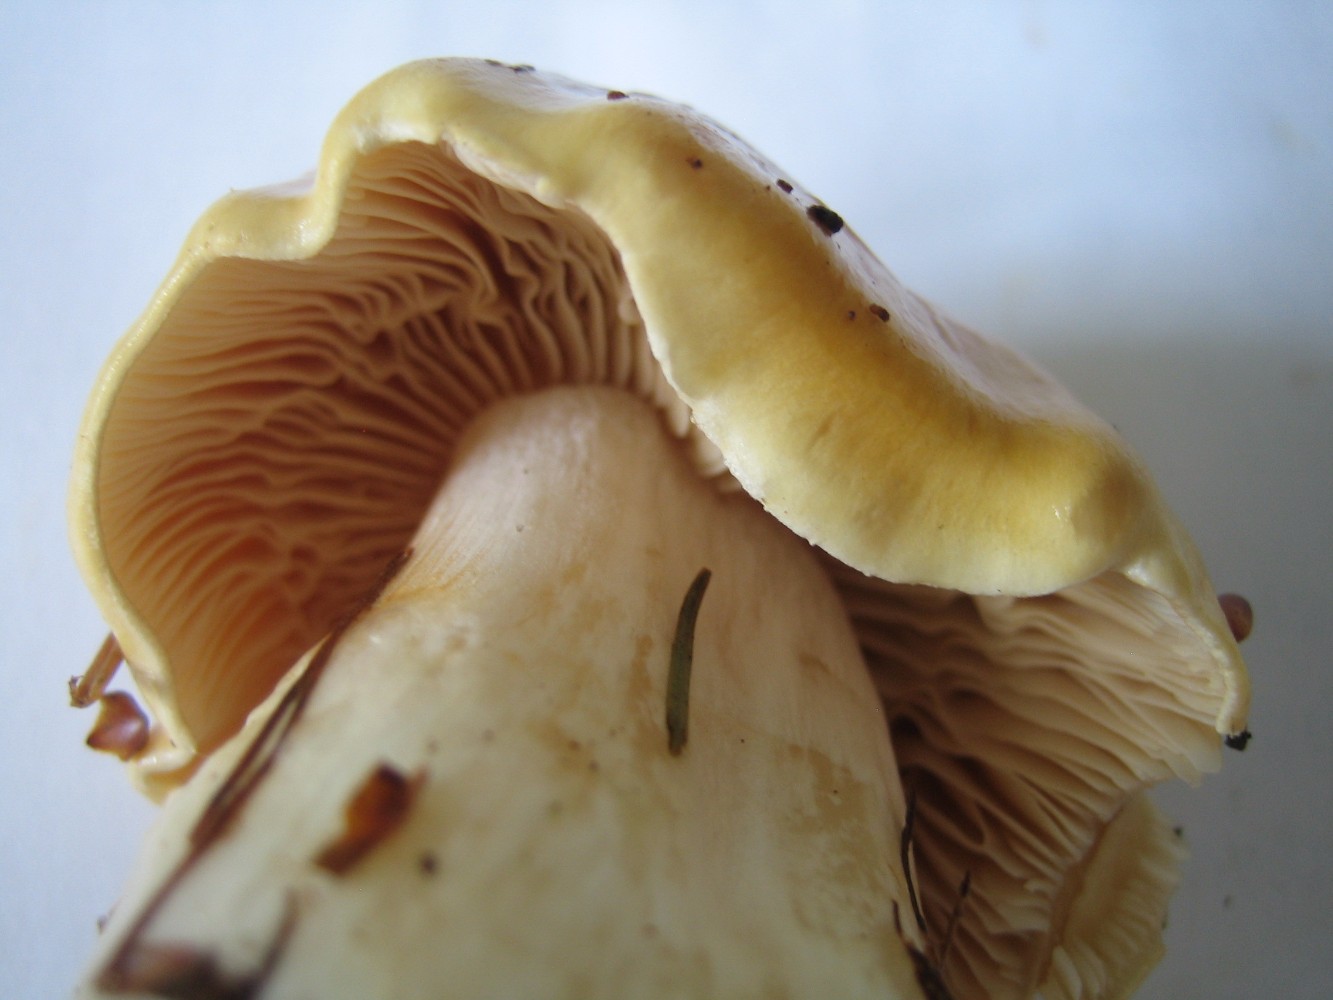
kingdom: Fungi
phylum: Basidiomycota
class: Agaricomycetes
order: Agaricales
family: Cortinariaceae
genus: Thaxterogaster
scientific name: Thaxterogaster emollitus
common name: besk slørhat
